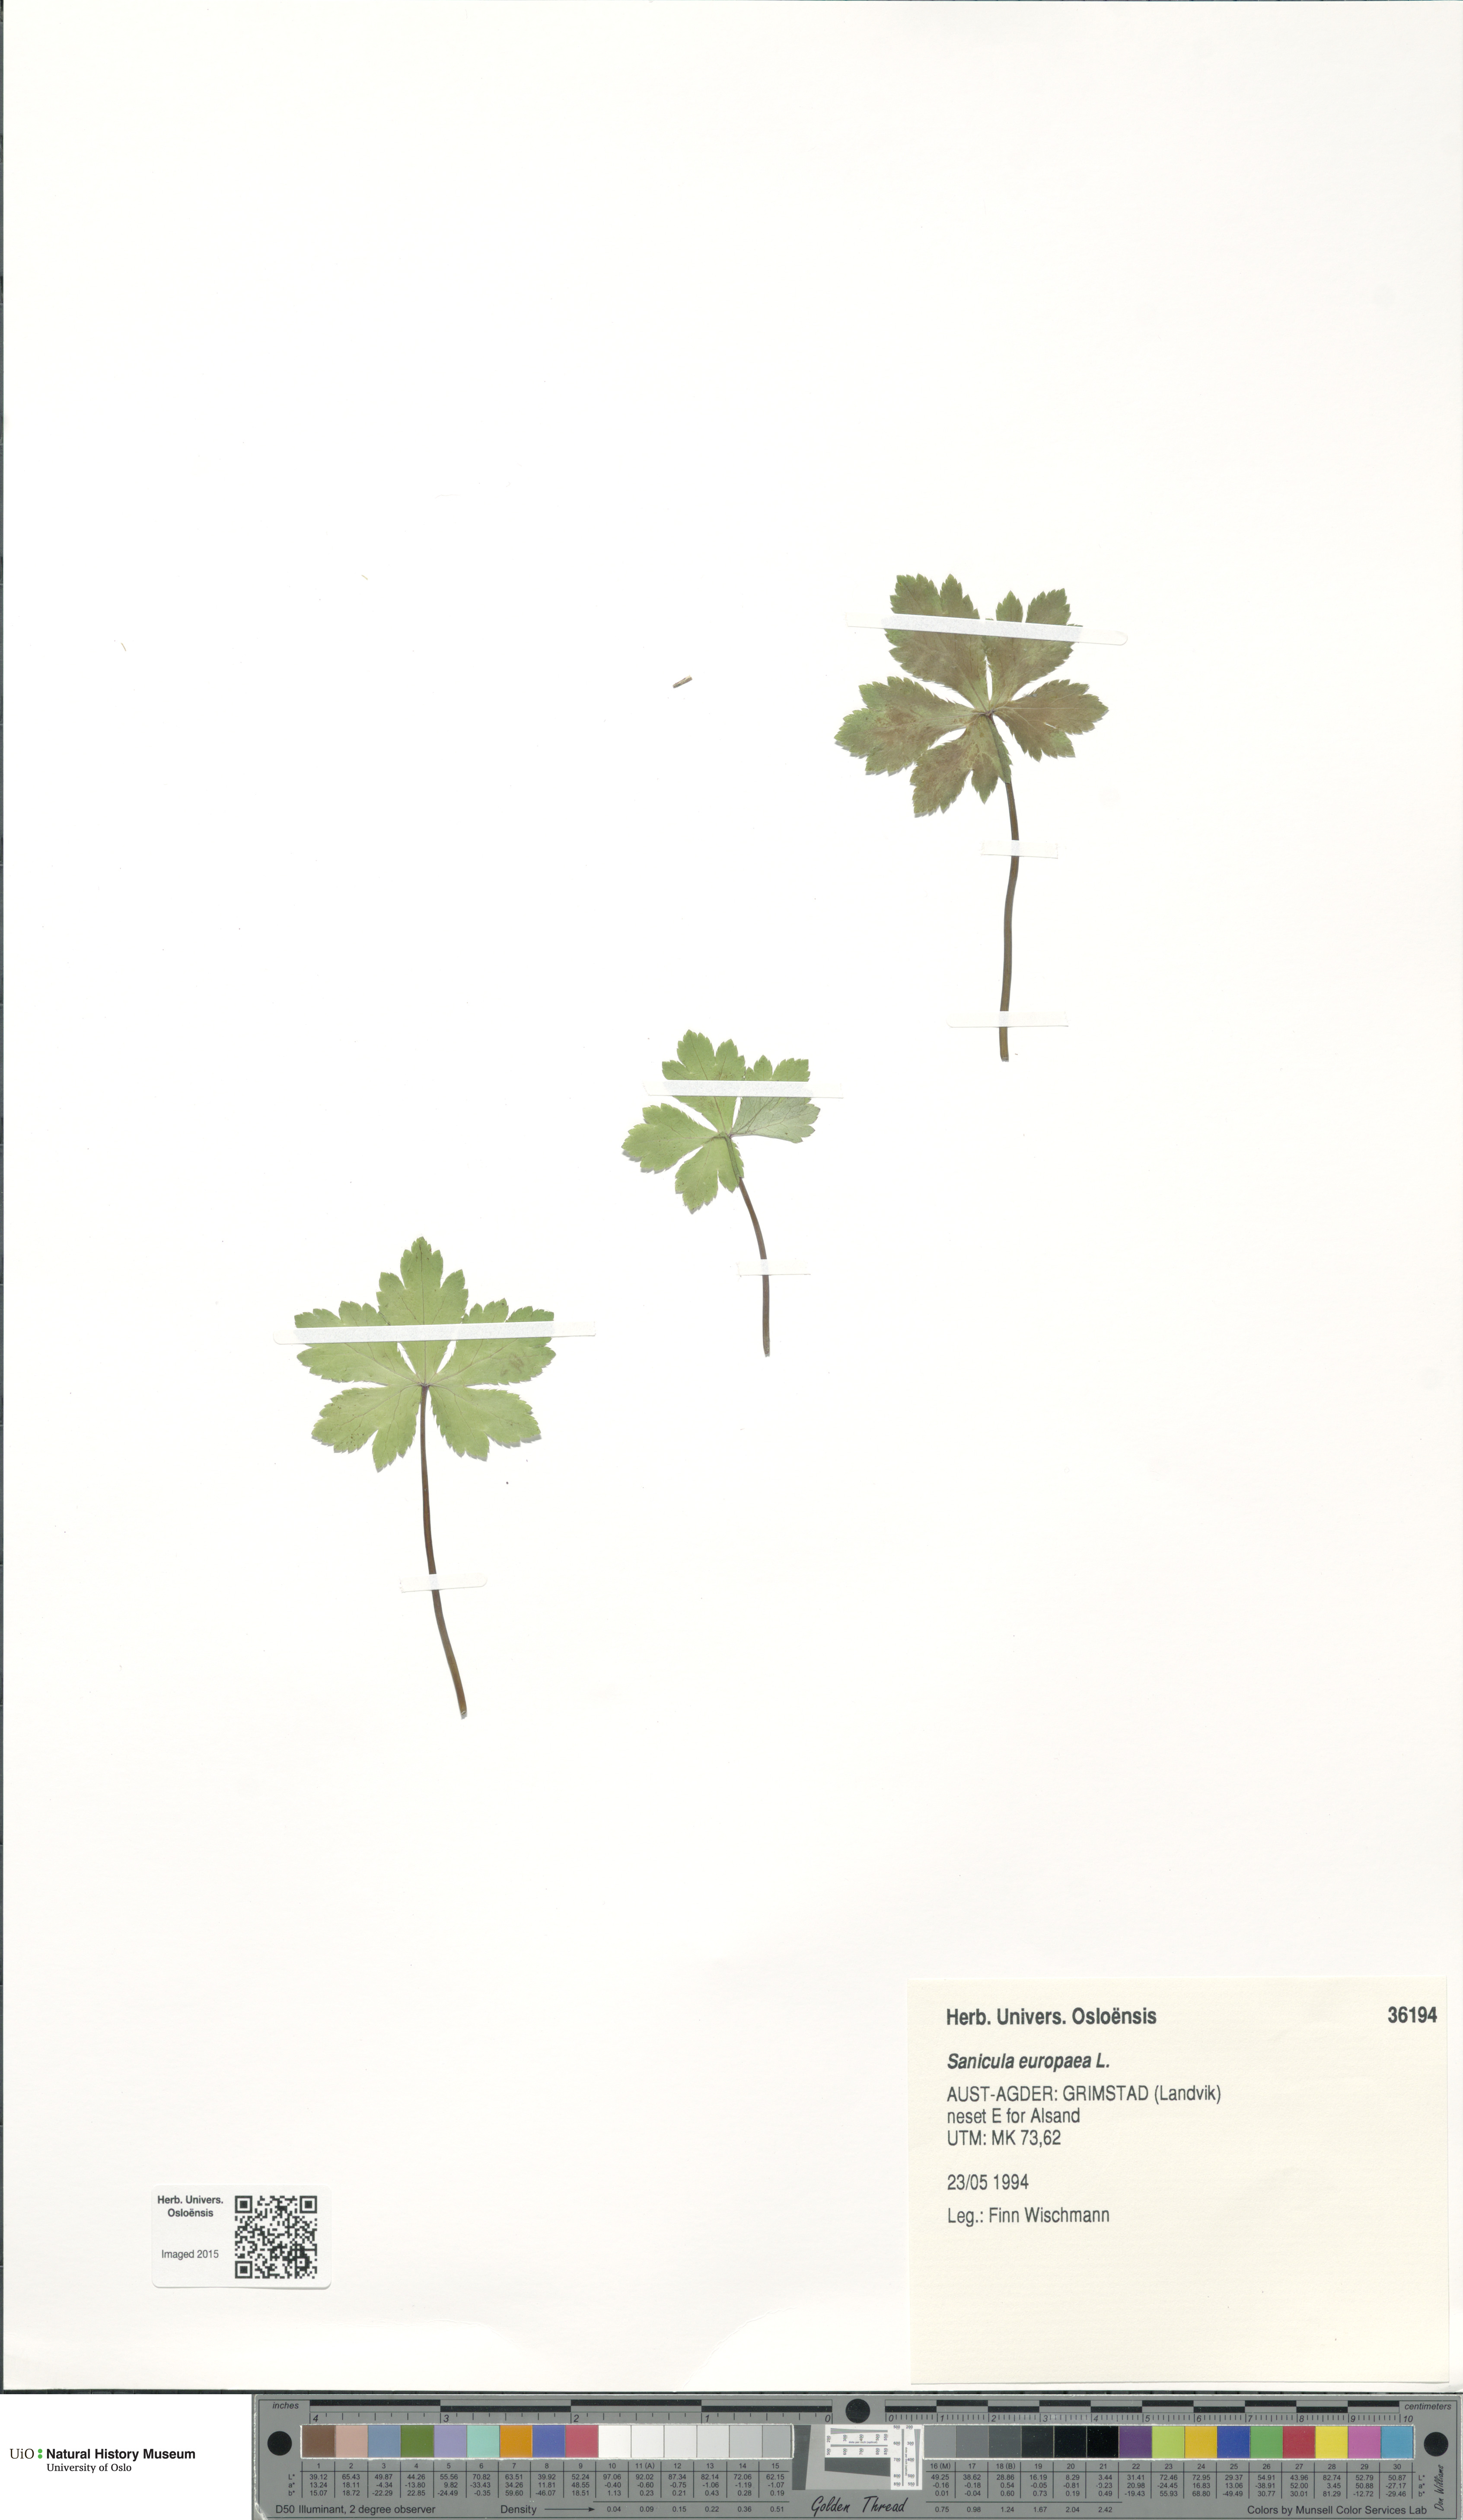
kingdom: Plantae
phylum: Tracheophyta
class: Magnoliopsida
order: Apiales
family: Apiaceae
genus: Sanicula
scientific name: Sanicula europaea
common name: Sanicle
